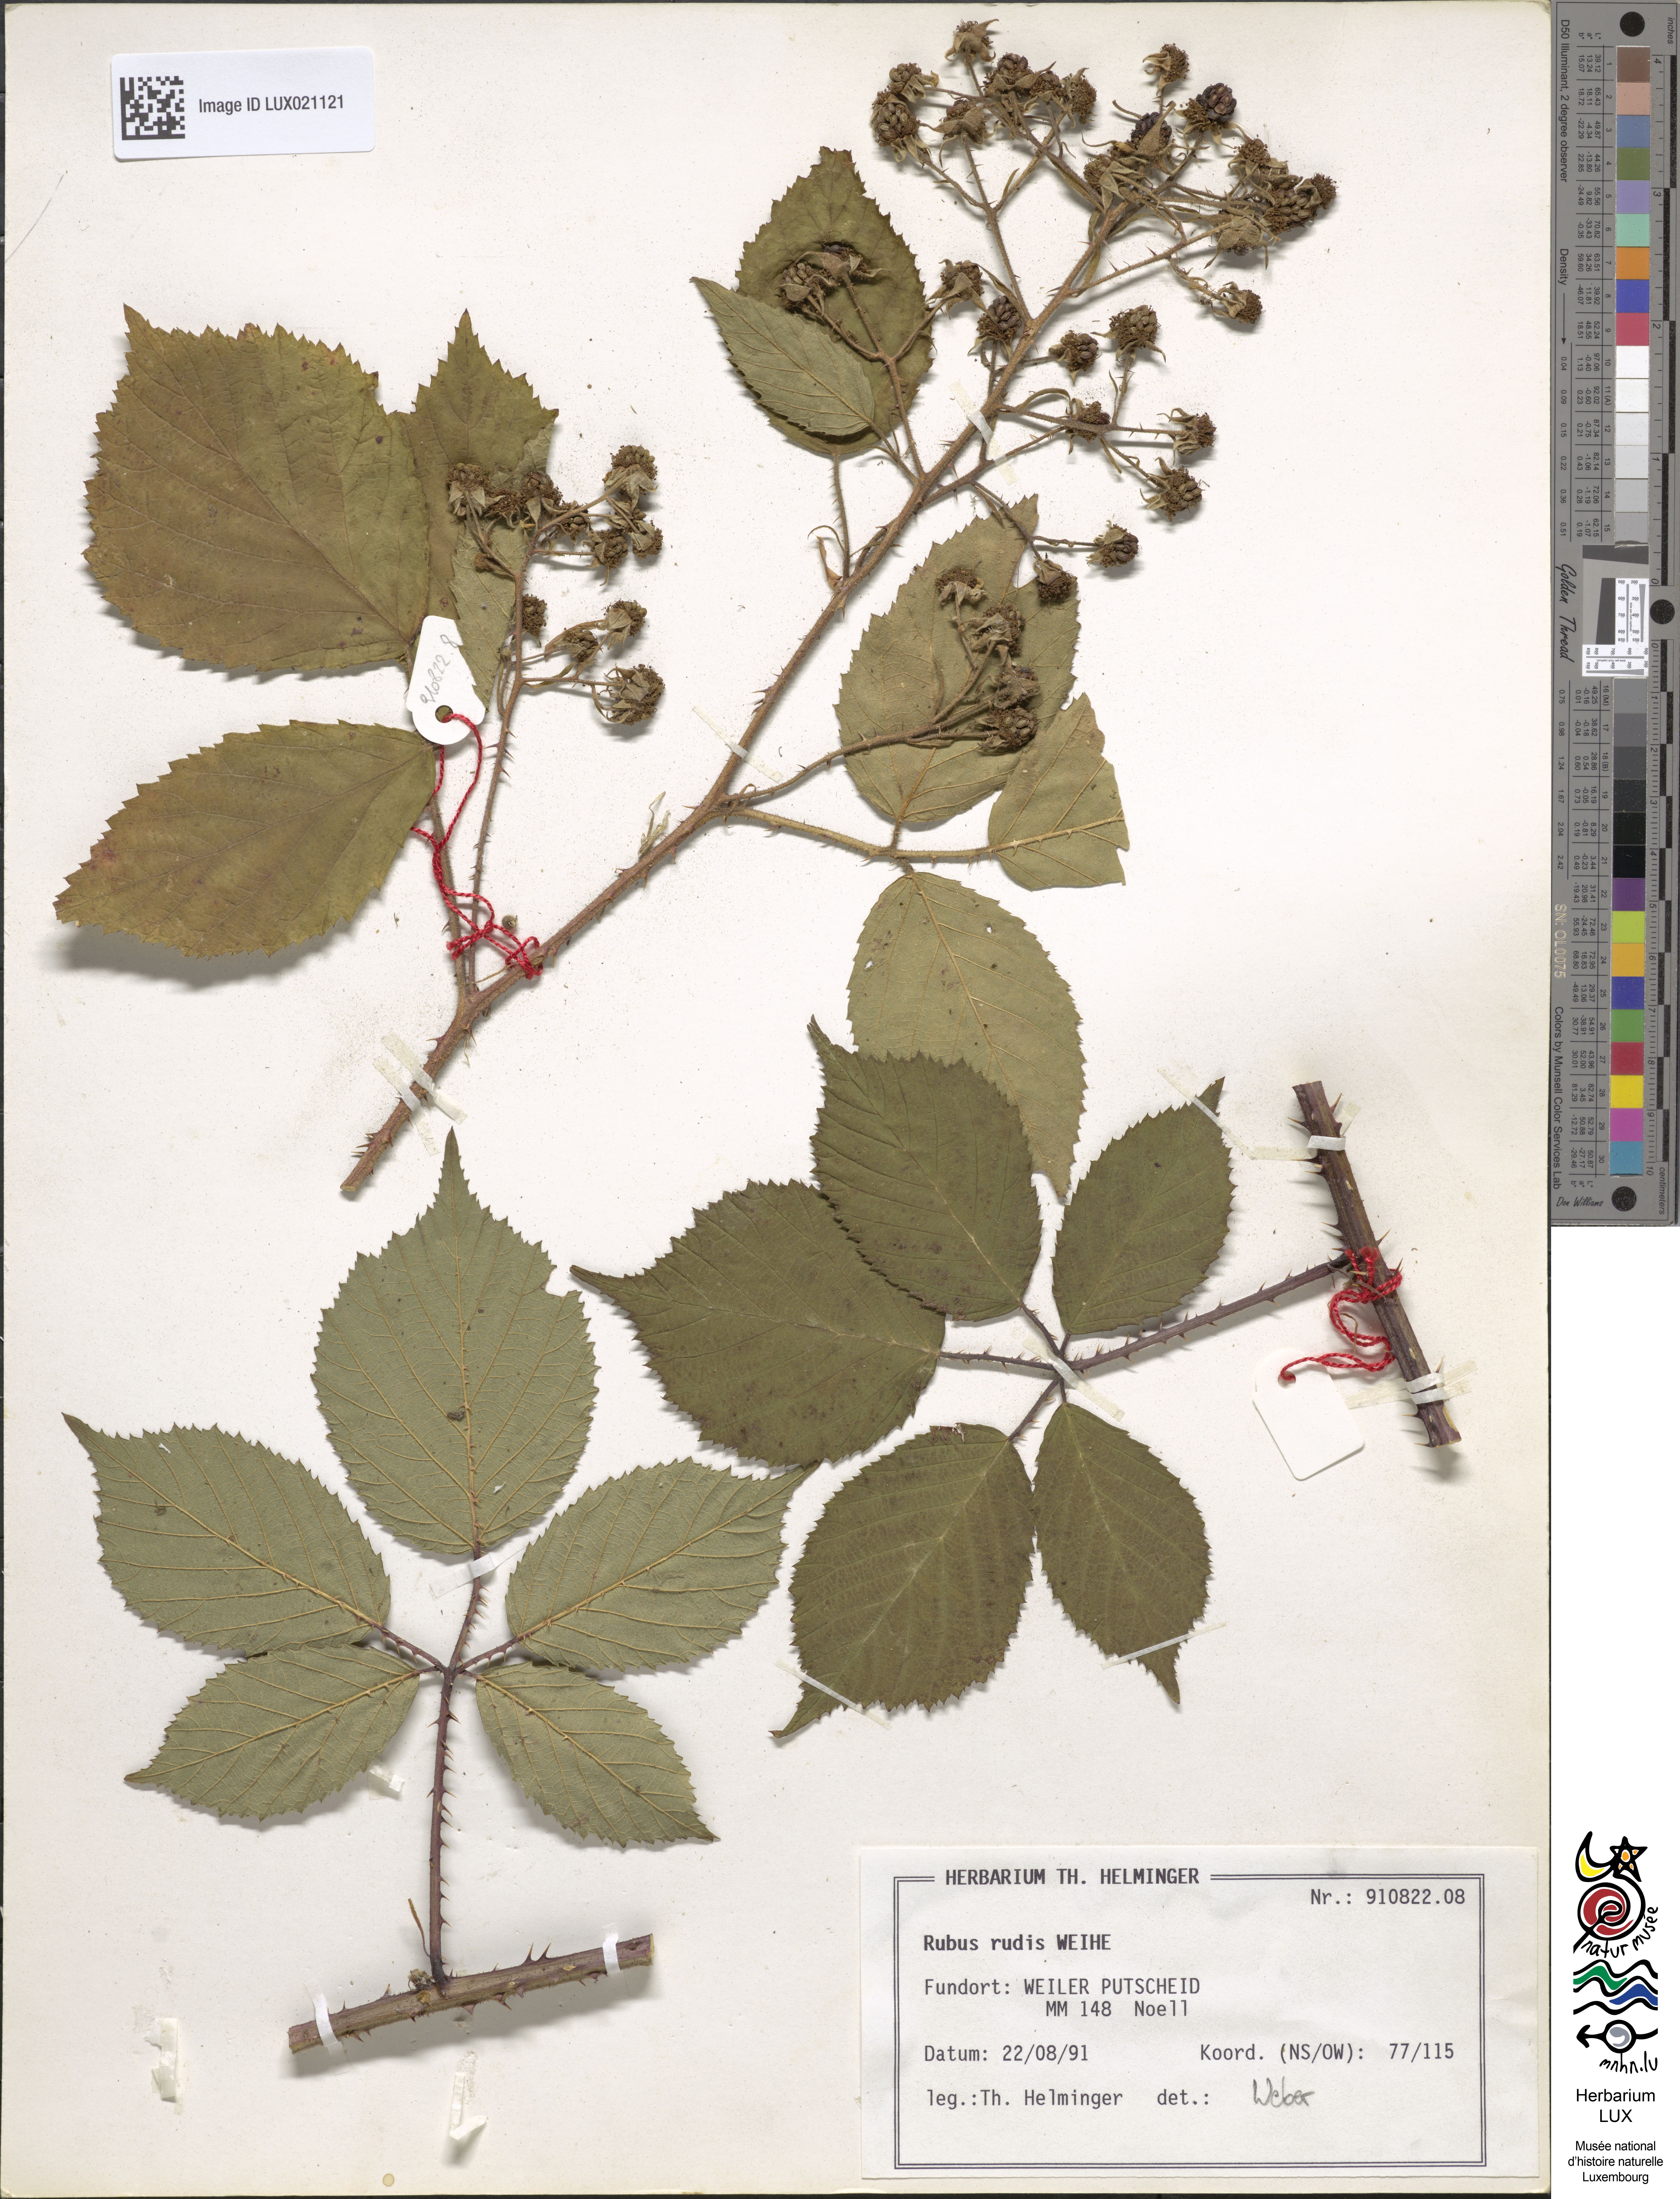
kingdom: Plantae
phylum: Tracheophyta
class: Magnoliopsida
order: Rosales
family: Rosaceae
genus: Rubus
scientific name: Rubus rudis
